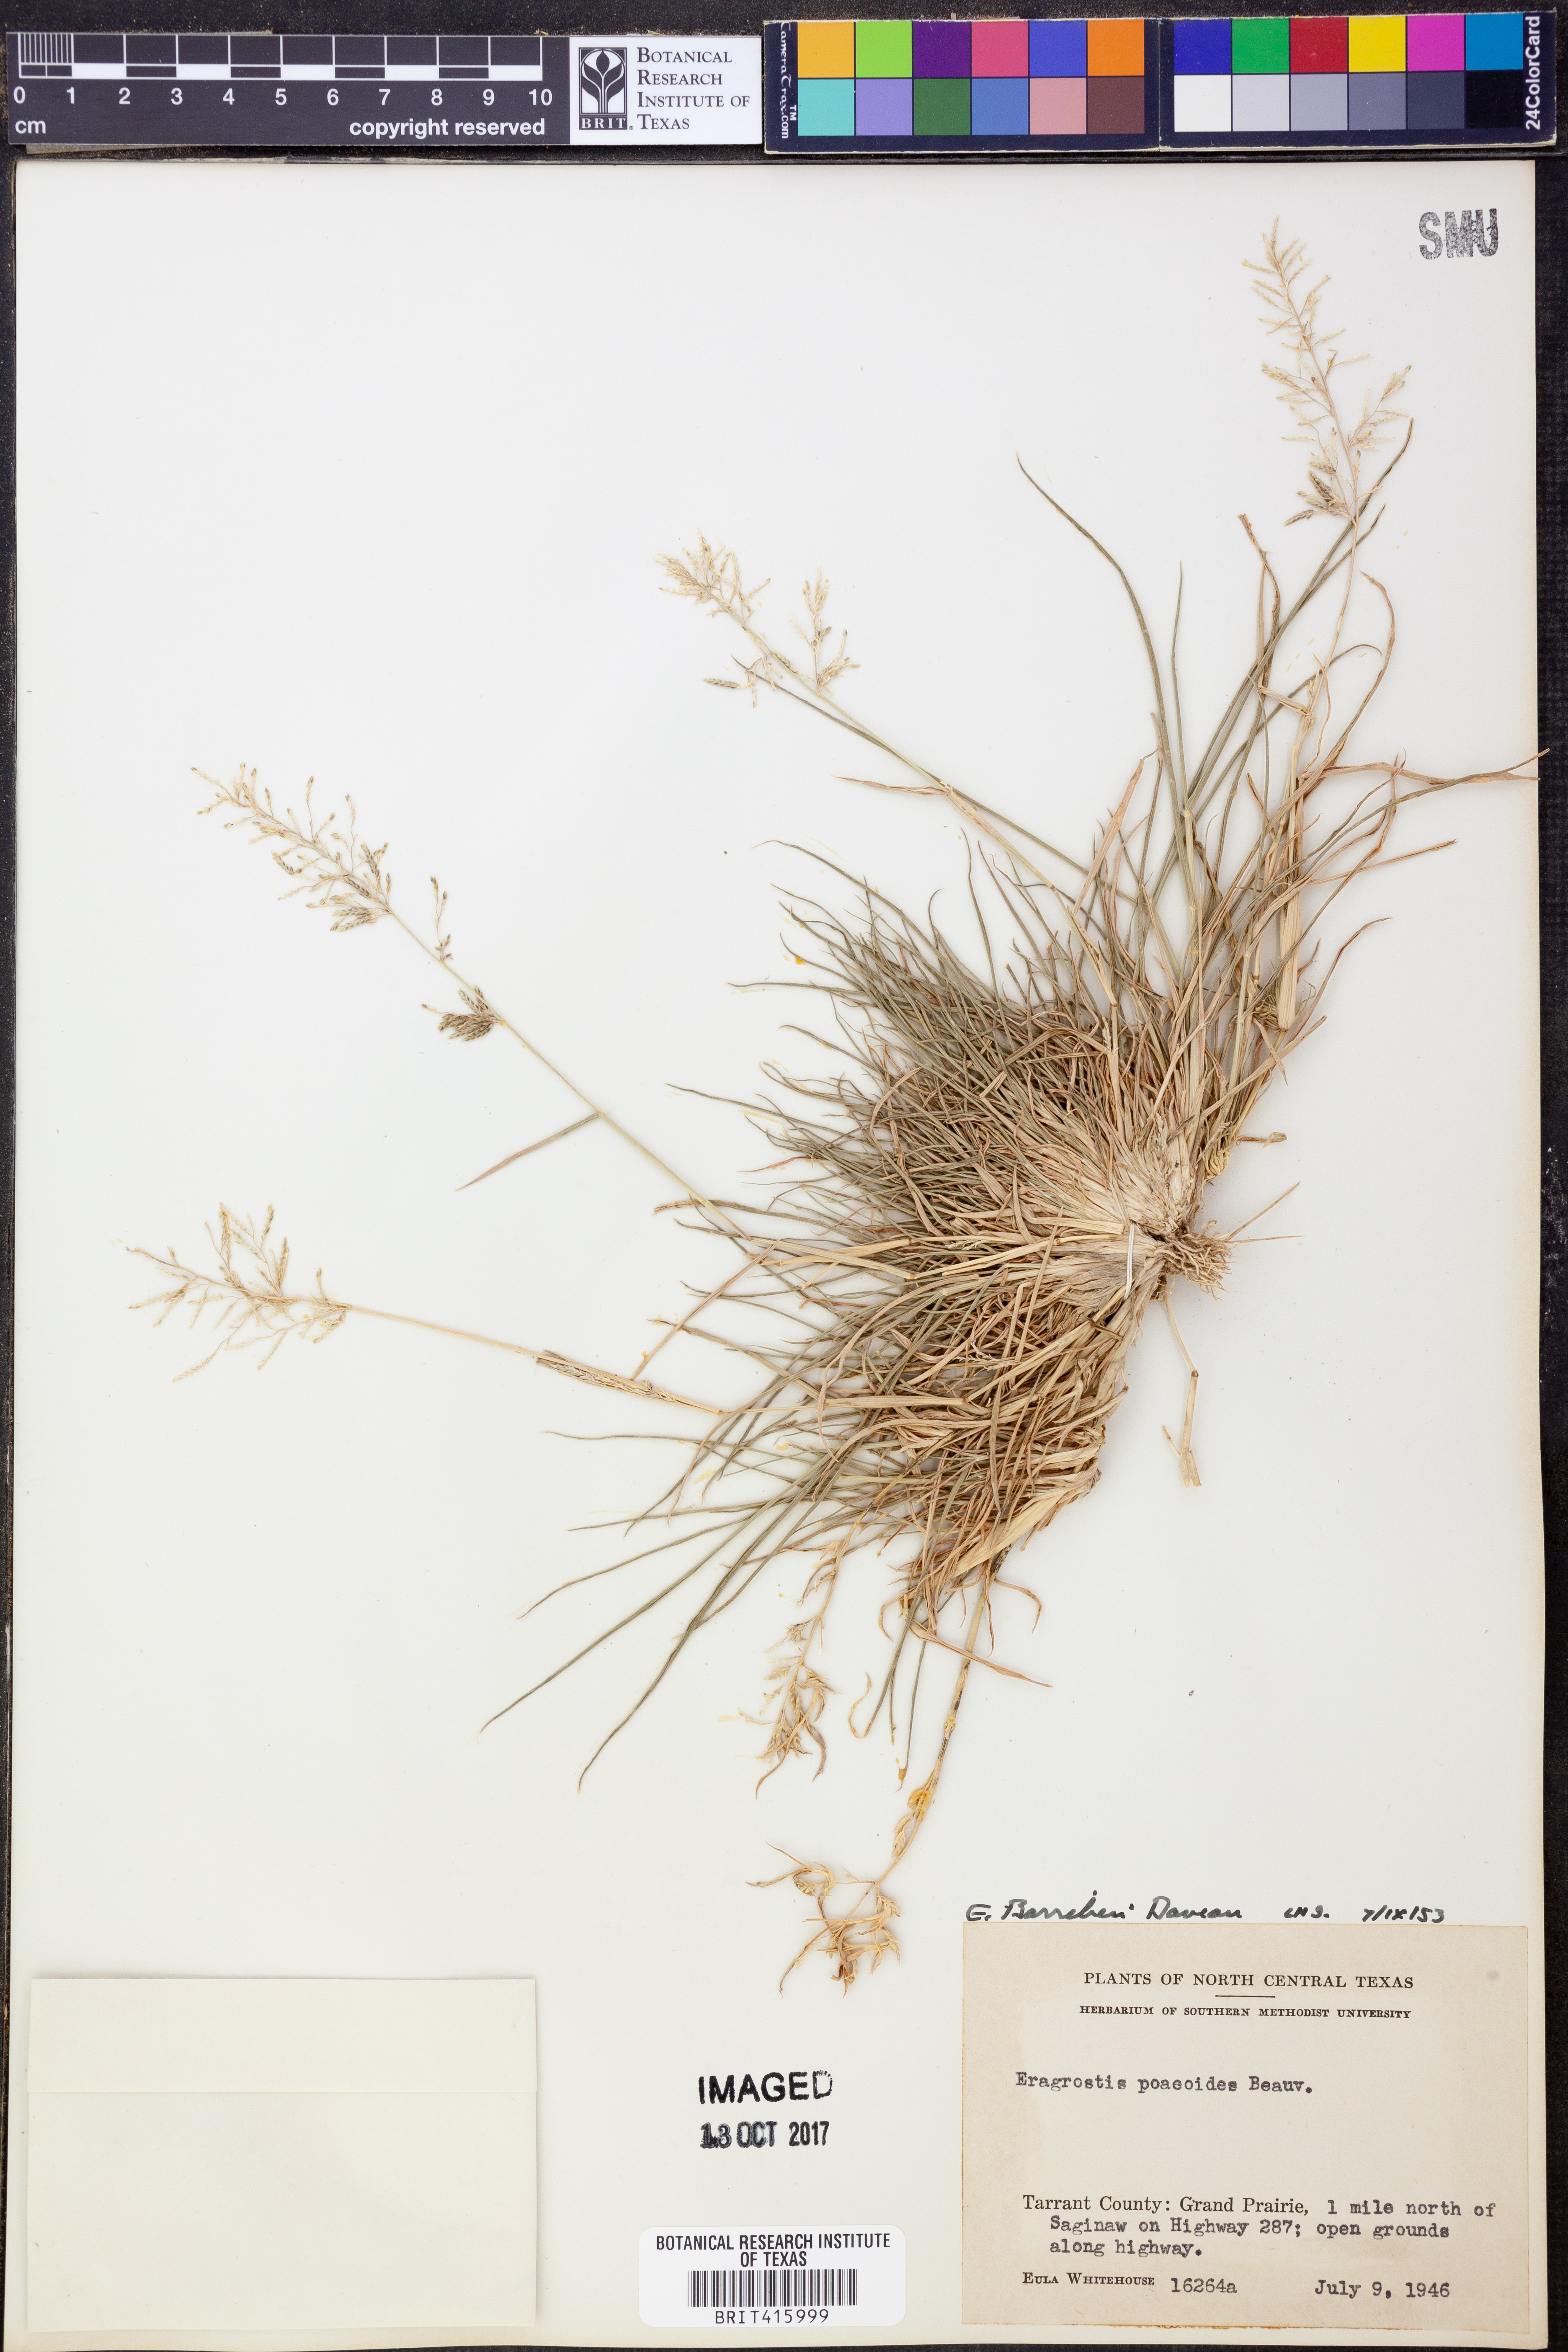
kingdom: Plantae
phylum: Tracheophyta
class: Liliopsida
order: Poales
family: Poaceae
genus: Eragrostis
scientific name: Eragrostis barrelieri
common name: Mediterranean lovegrass
